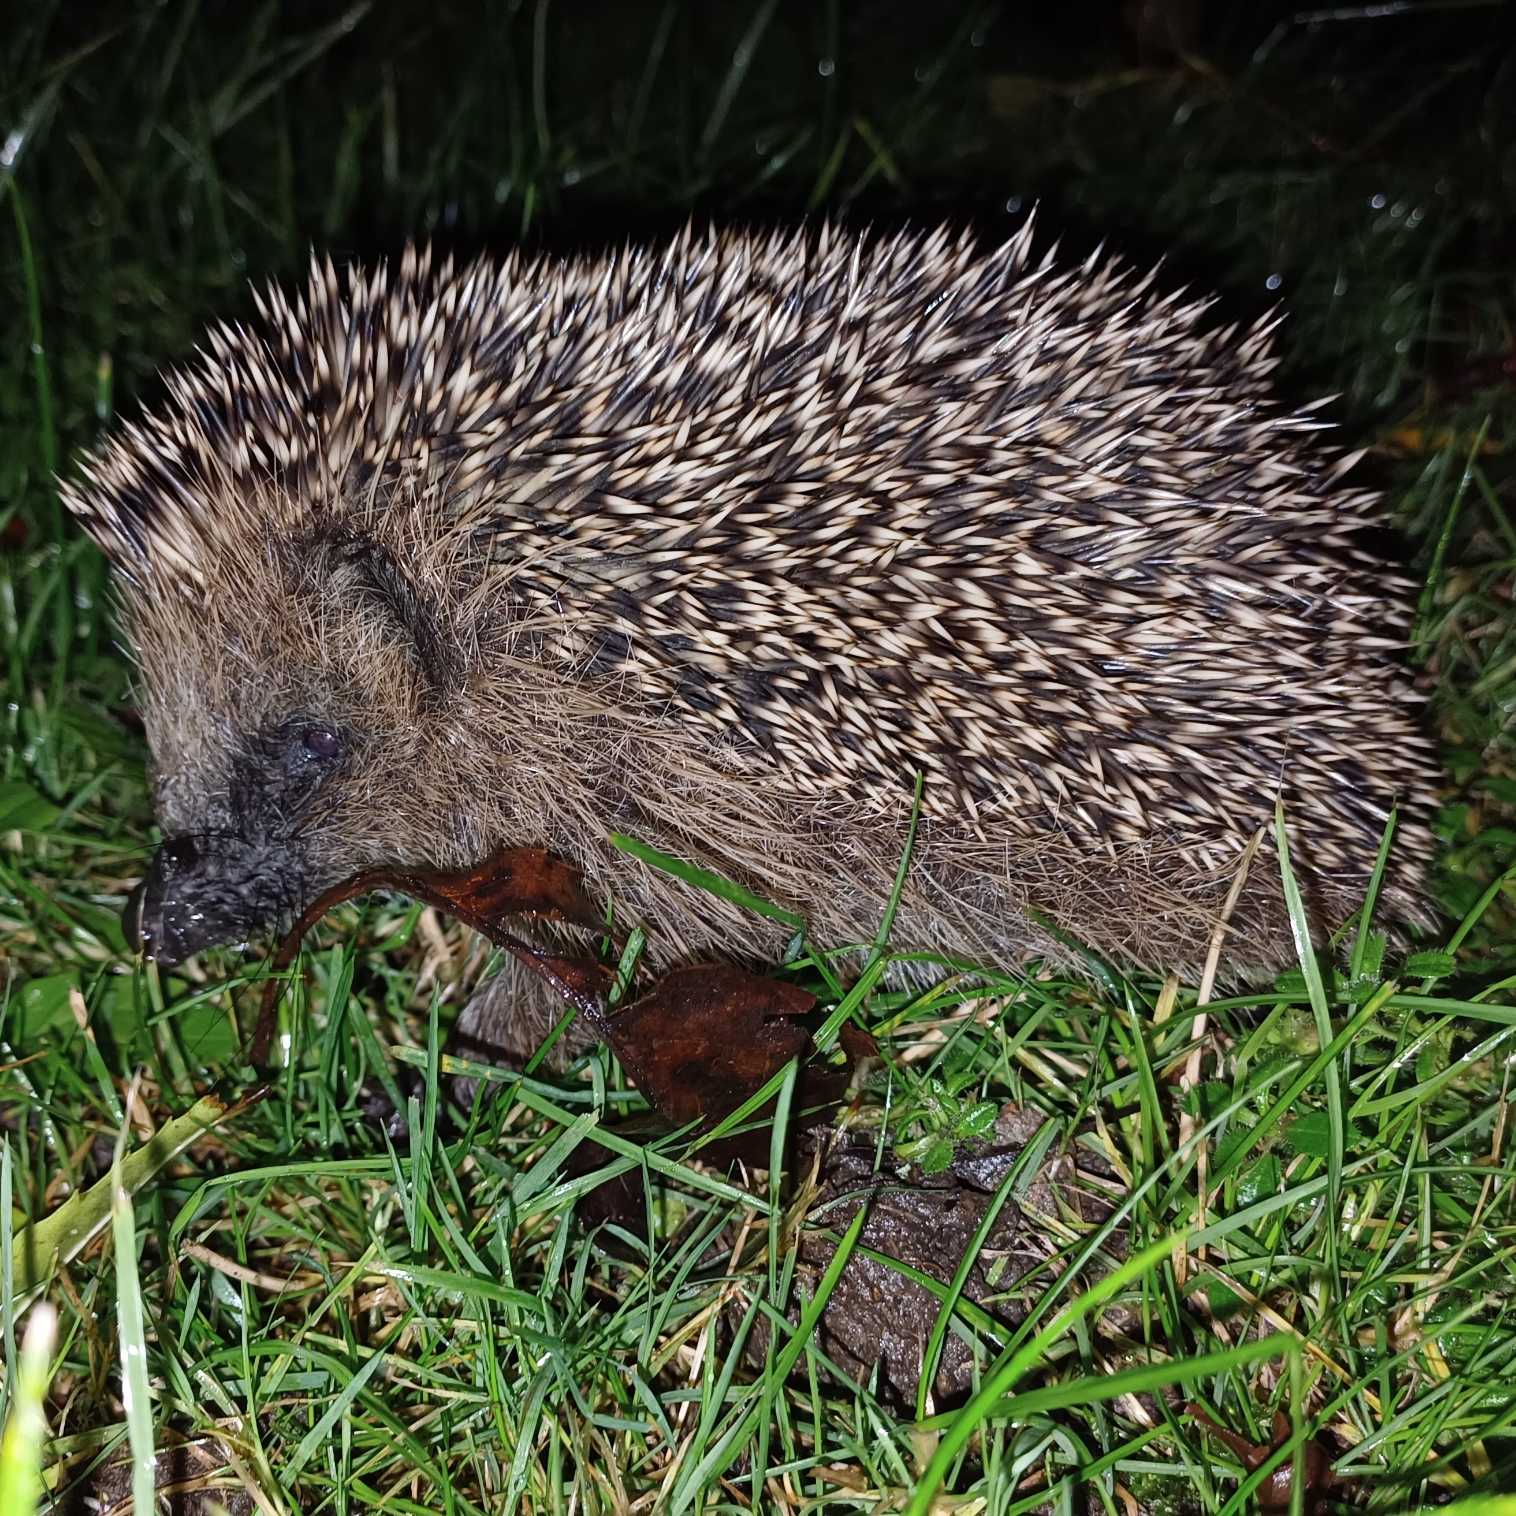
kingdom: Animalia
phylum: Chordata
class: Mammalia
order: Erinaceomorpha
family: Erinaceidae
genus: Erinaceus
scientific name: Erinaceus europaeus
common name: Pindsvin
